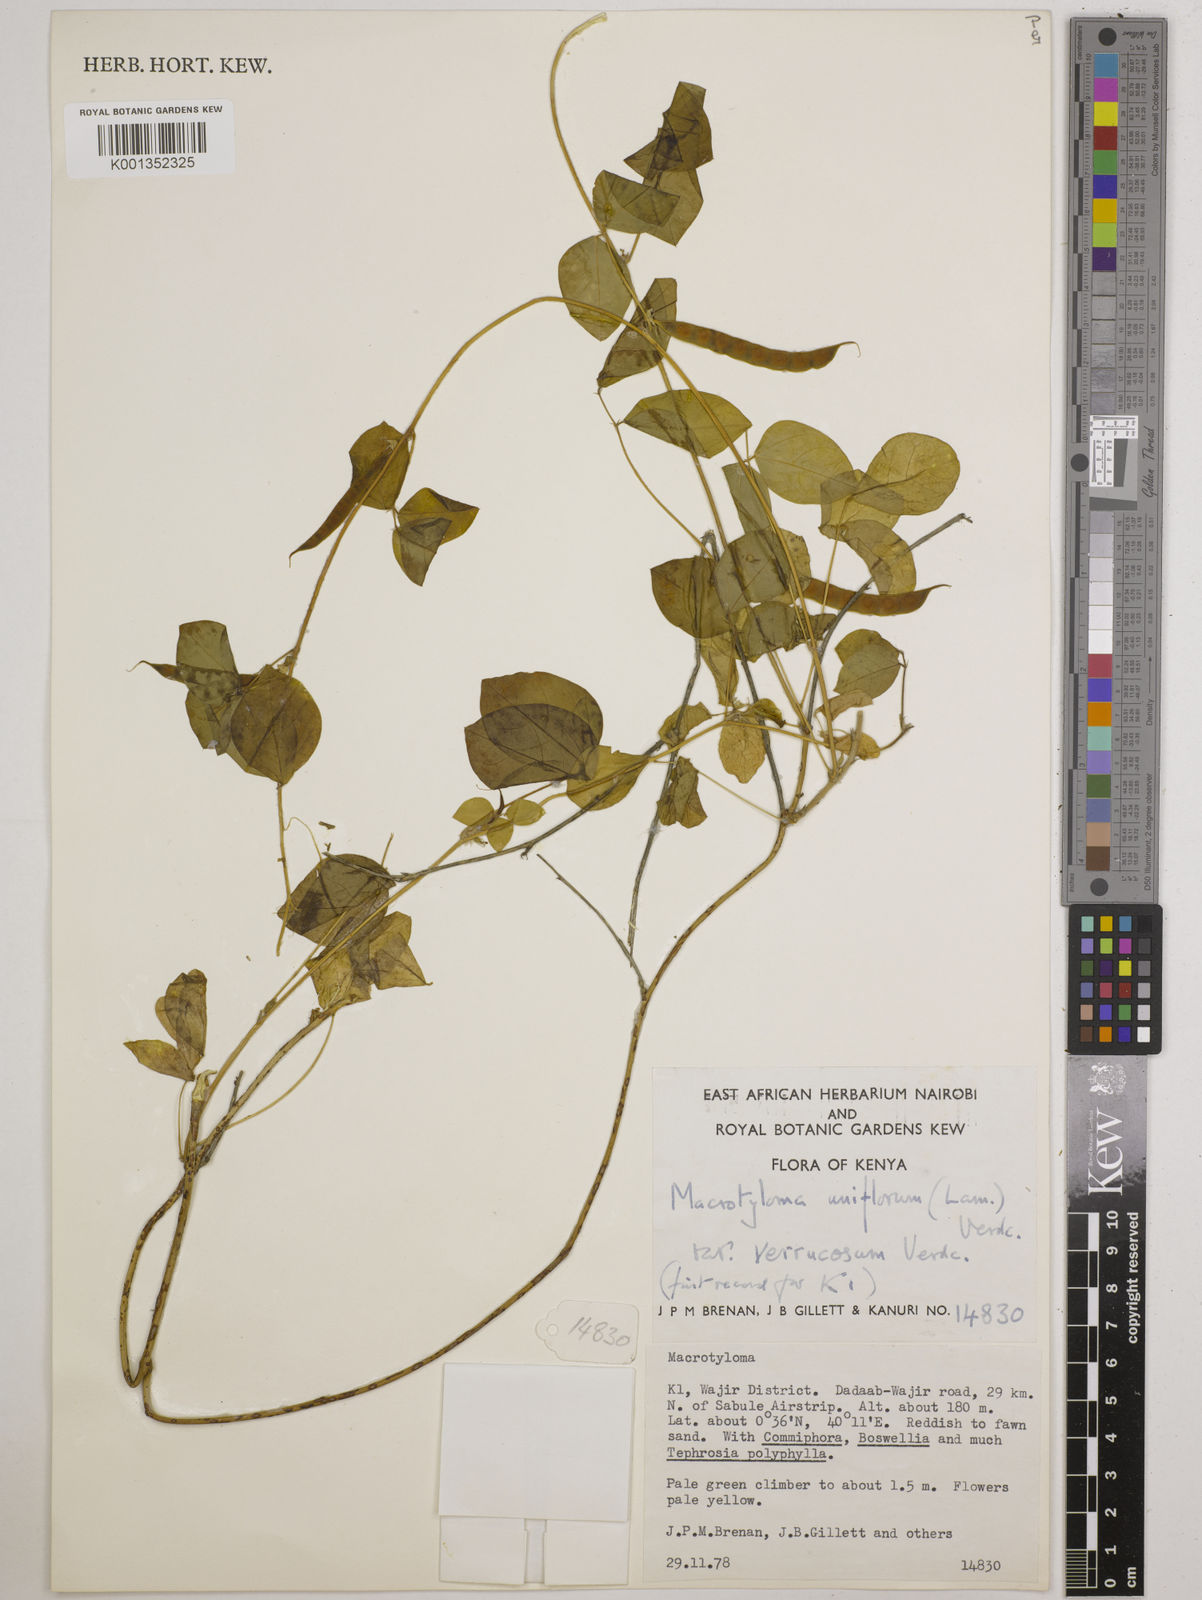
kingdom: Plantae
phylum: Tracheophyta
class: Magnoliopsida
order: Fabales
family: Fabaceae
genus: Macrotyloma
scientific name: Macrotyloma uniflorum
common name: Horse gram
